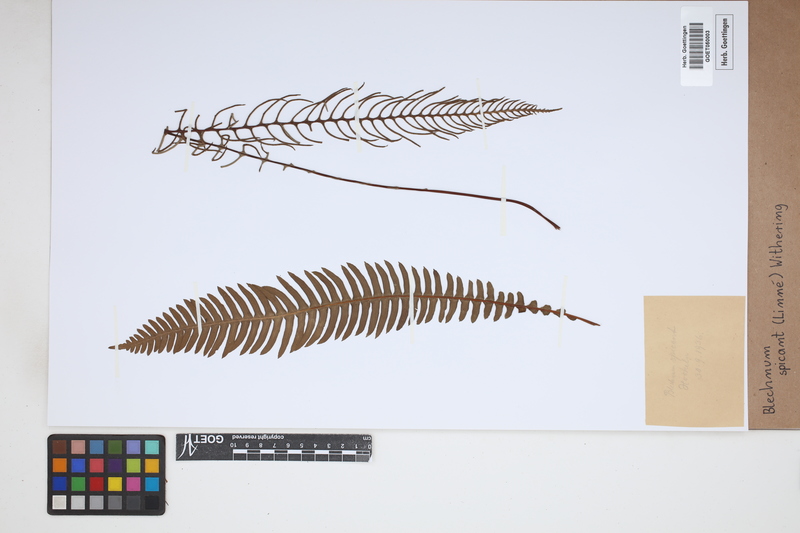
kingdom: Plantae
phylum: Tracheophyta
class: Polypodiopsida
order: Polypodiales
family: Blechnaceae
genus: Struthiopteris
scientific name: Struthiopteris spicant
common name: Deer fern
